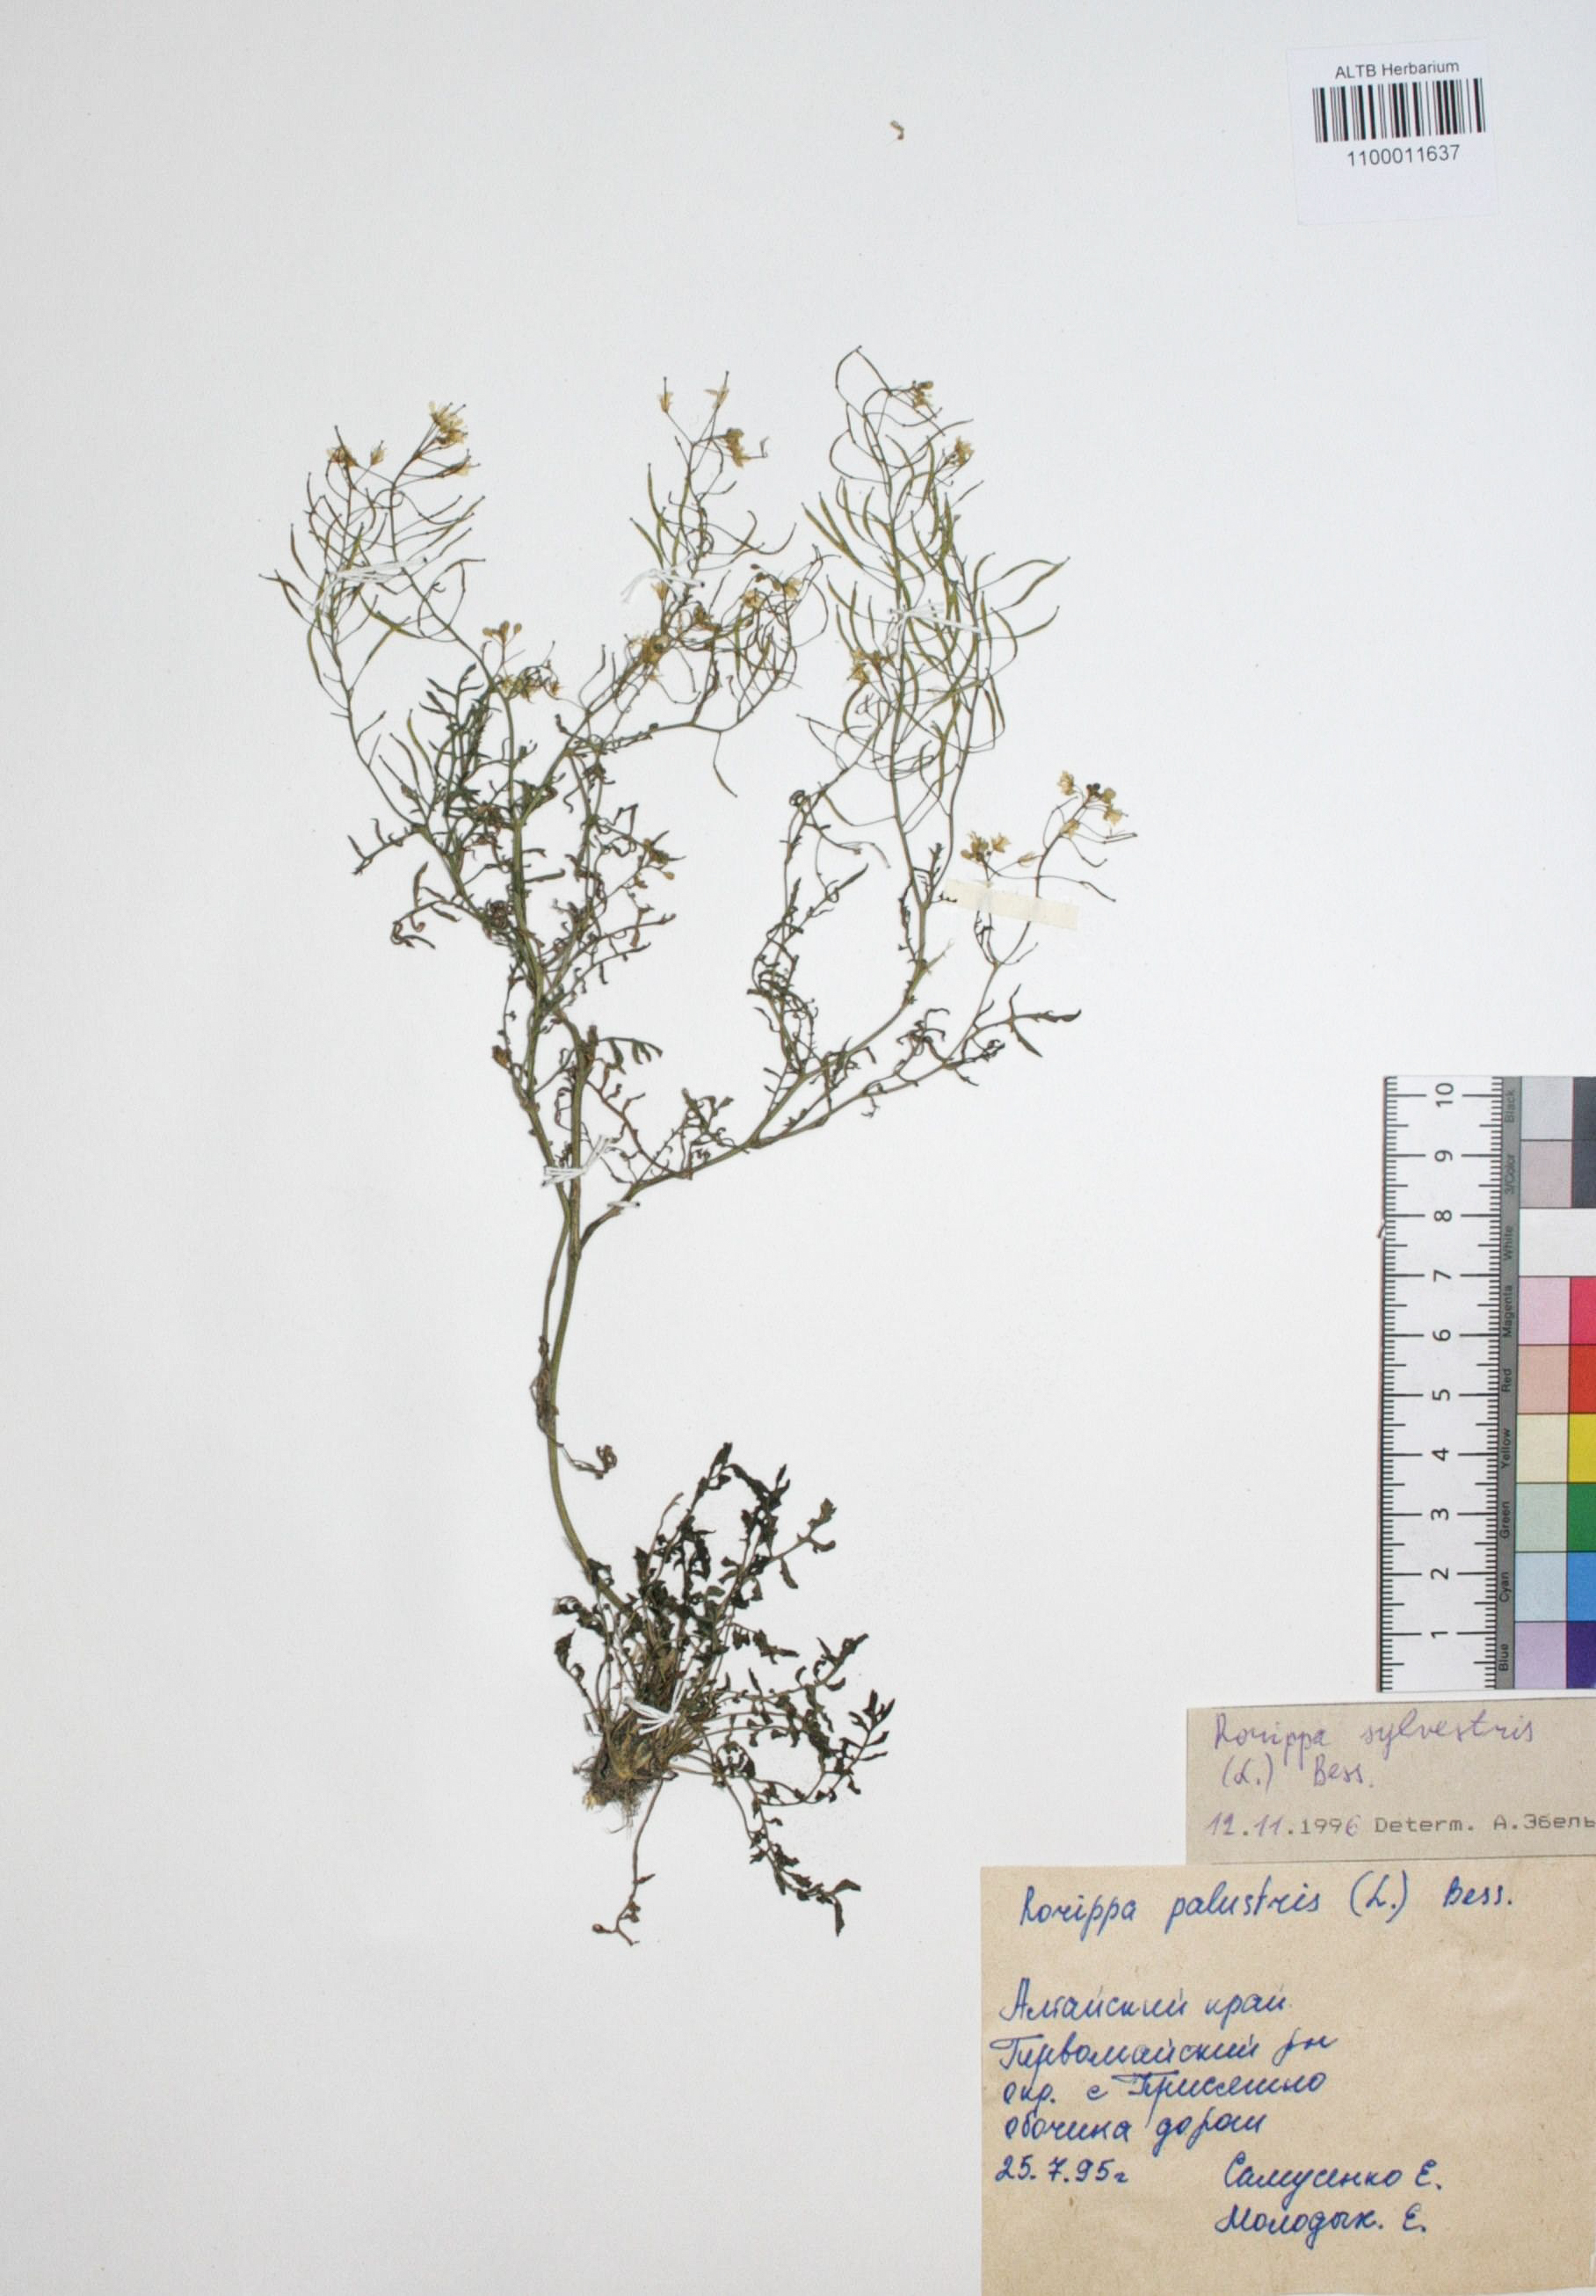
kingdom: Plantae
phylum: Tracheophyta
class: Magnoliopsida
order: Brassicales
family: Brassicaceae
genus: Rorippa
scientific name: Rorippa sylvestris
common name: Creeping yellowcress
